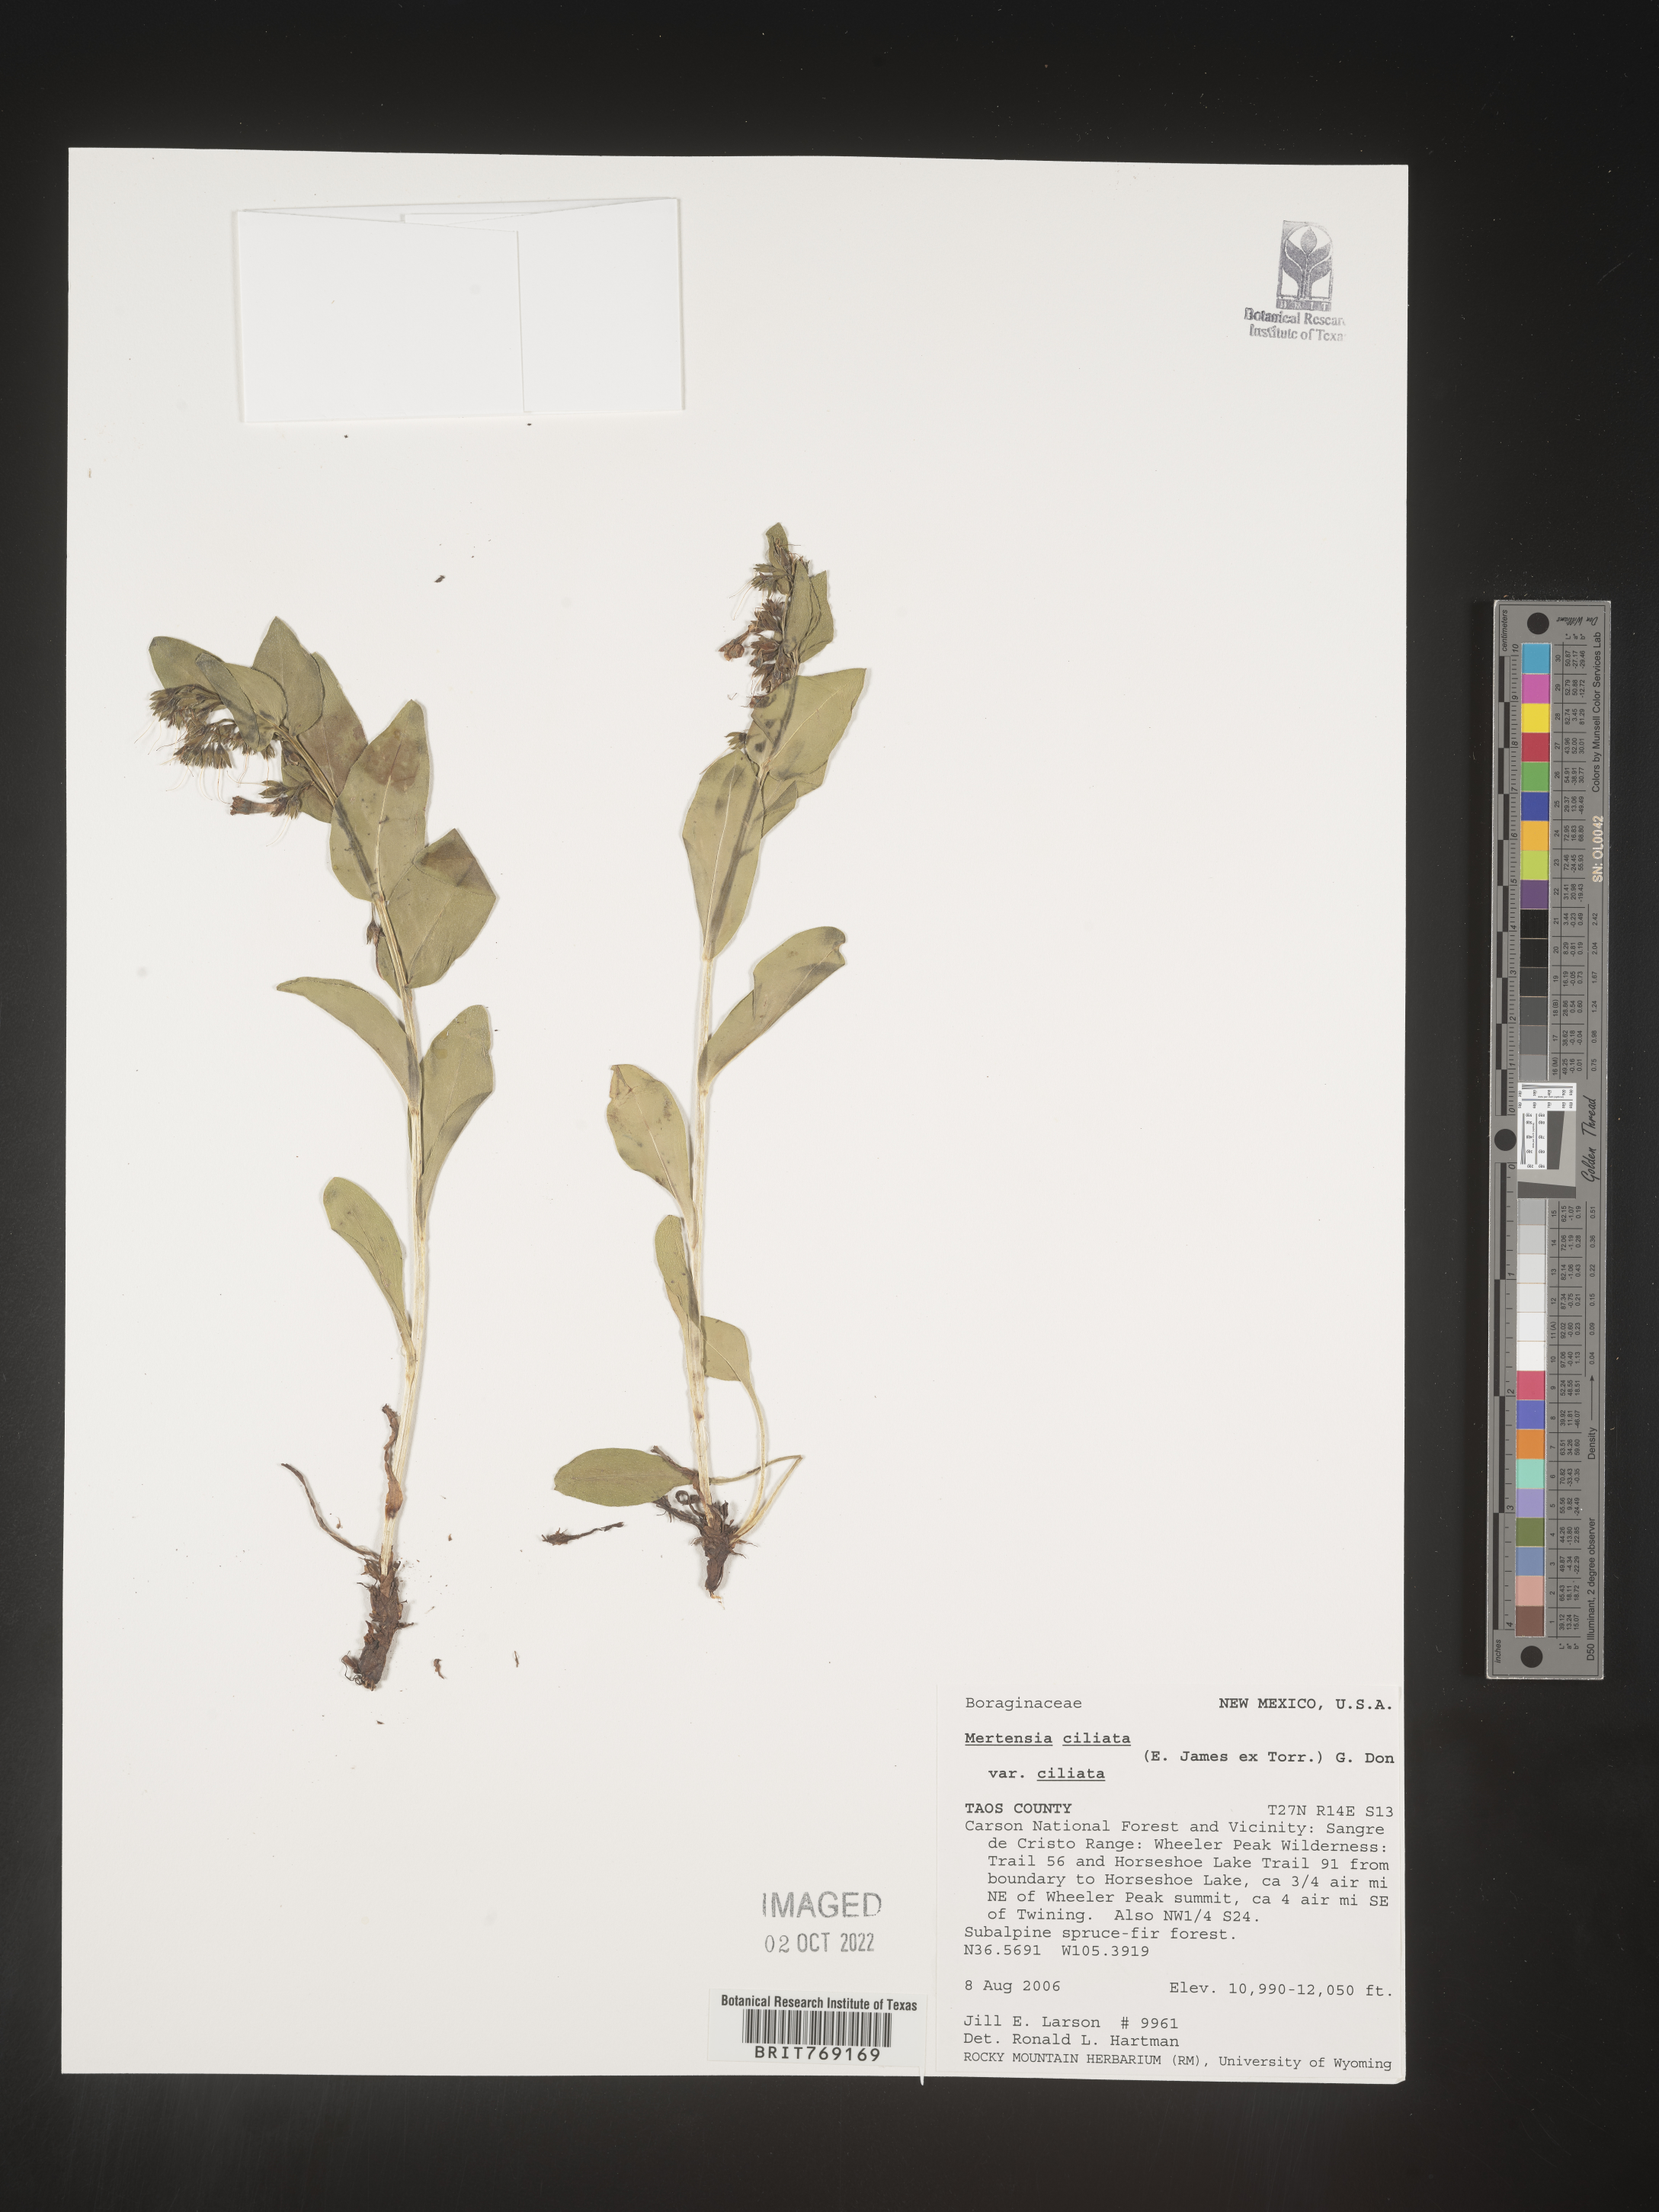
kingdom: Plantae
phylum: Tracheophyta
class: Magnoliopsida
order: Boraginales
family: Boraginaceae
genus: Mertensia
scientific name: Mertensia
